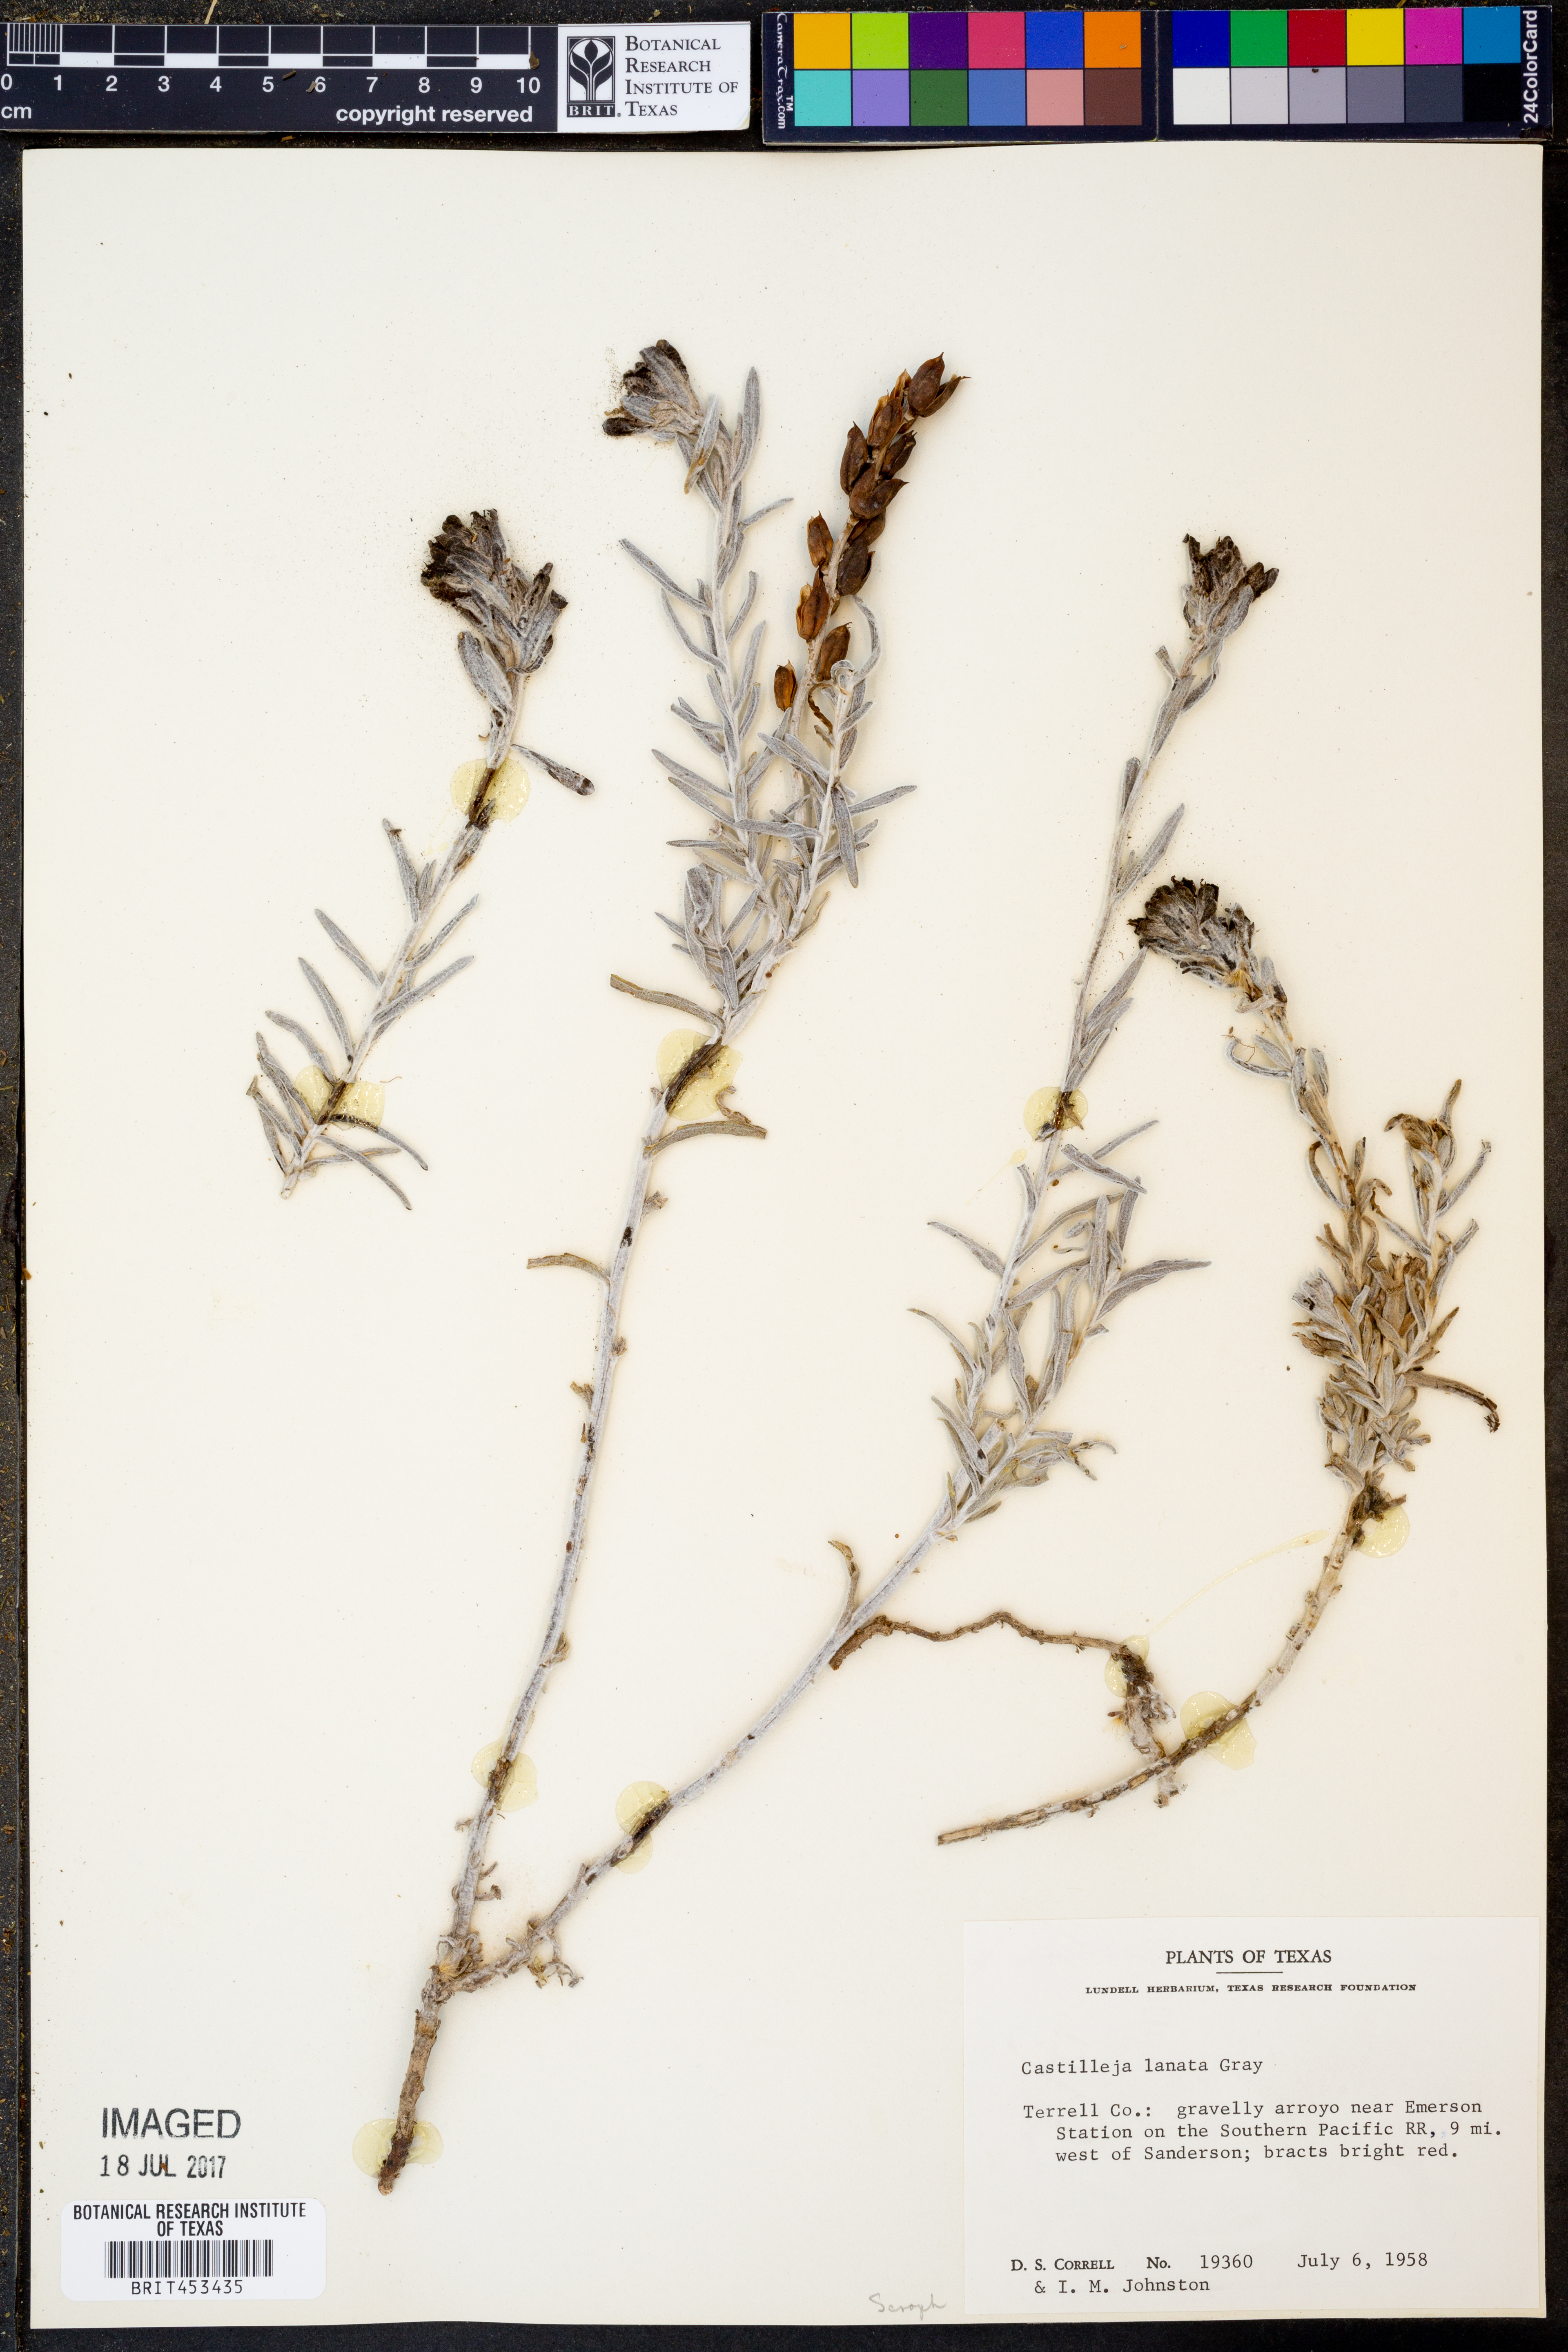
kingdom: Plantae
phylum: Tracheophyta
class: Magnoliopsida
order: Lamiales
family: Orobanchaceae
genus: Castilleja
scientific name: Castilleja lanata
